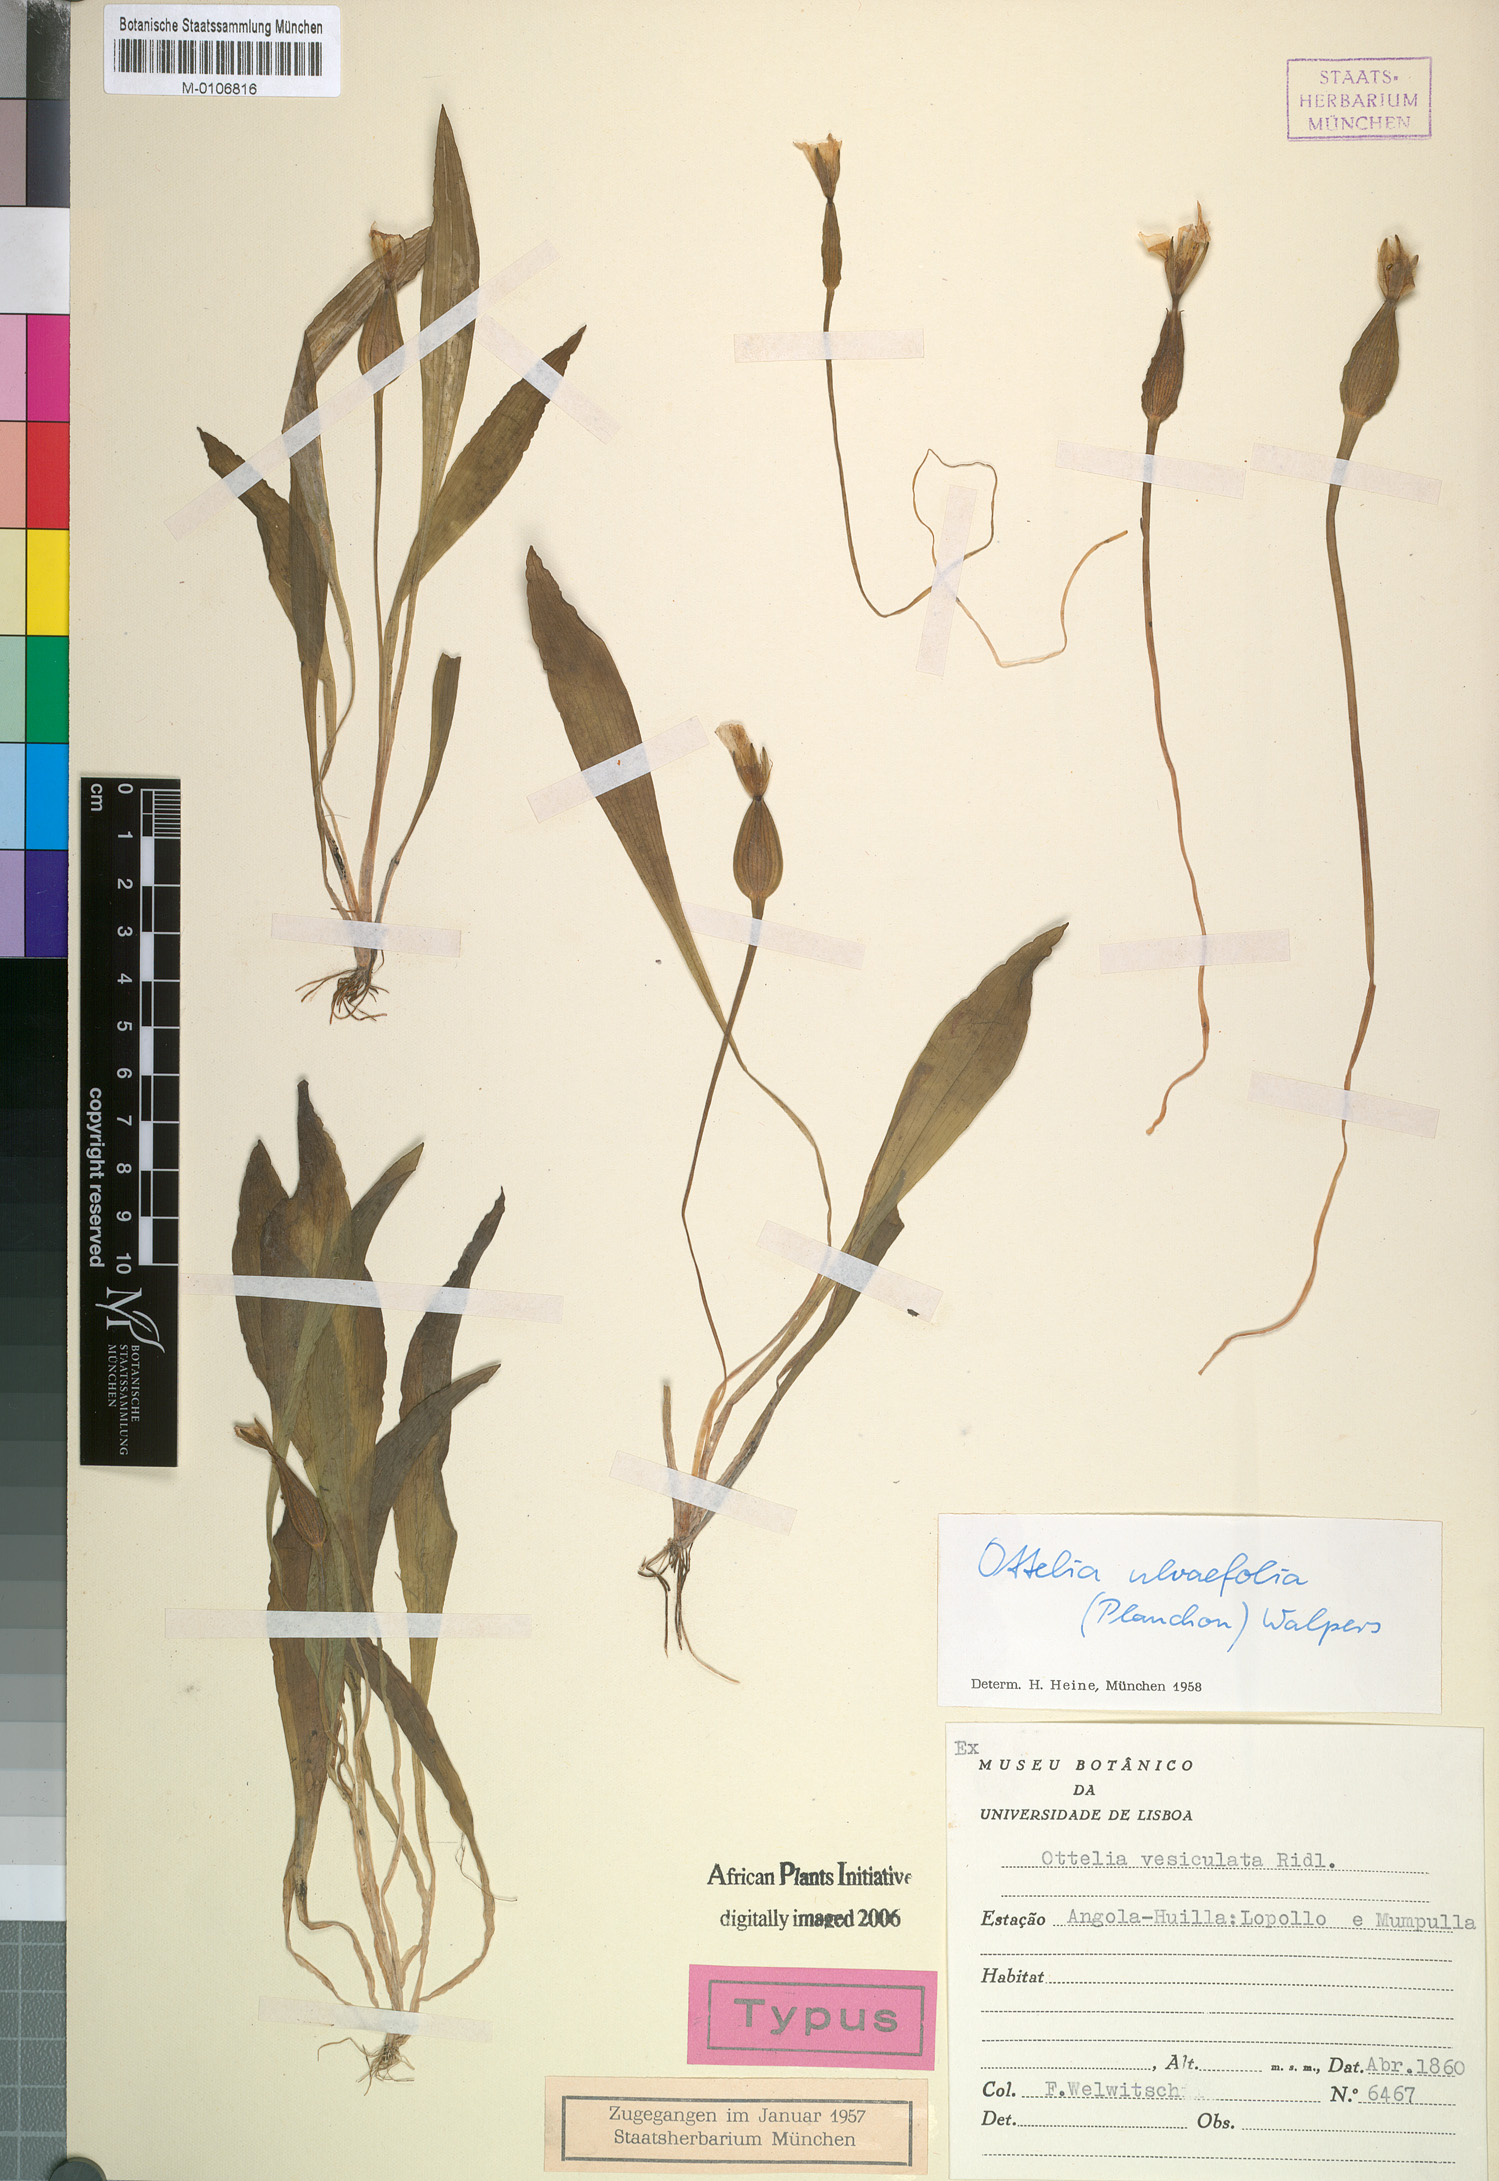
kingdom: Plantae
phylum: Tracheophyta
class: Liliopsida
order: Alismatales
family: Hydrocharitaceae
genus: Ottelia
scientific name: Ottelia ulvifolia
